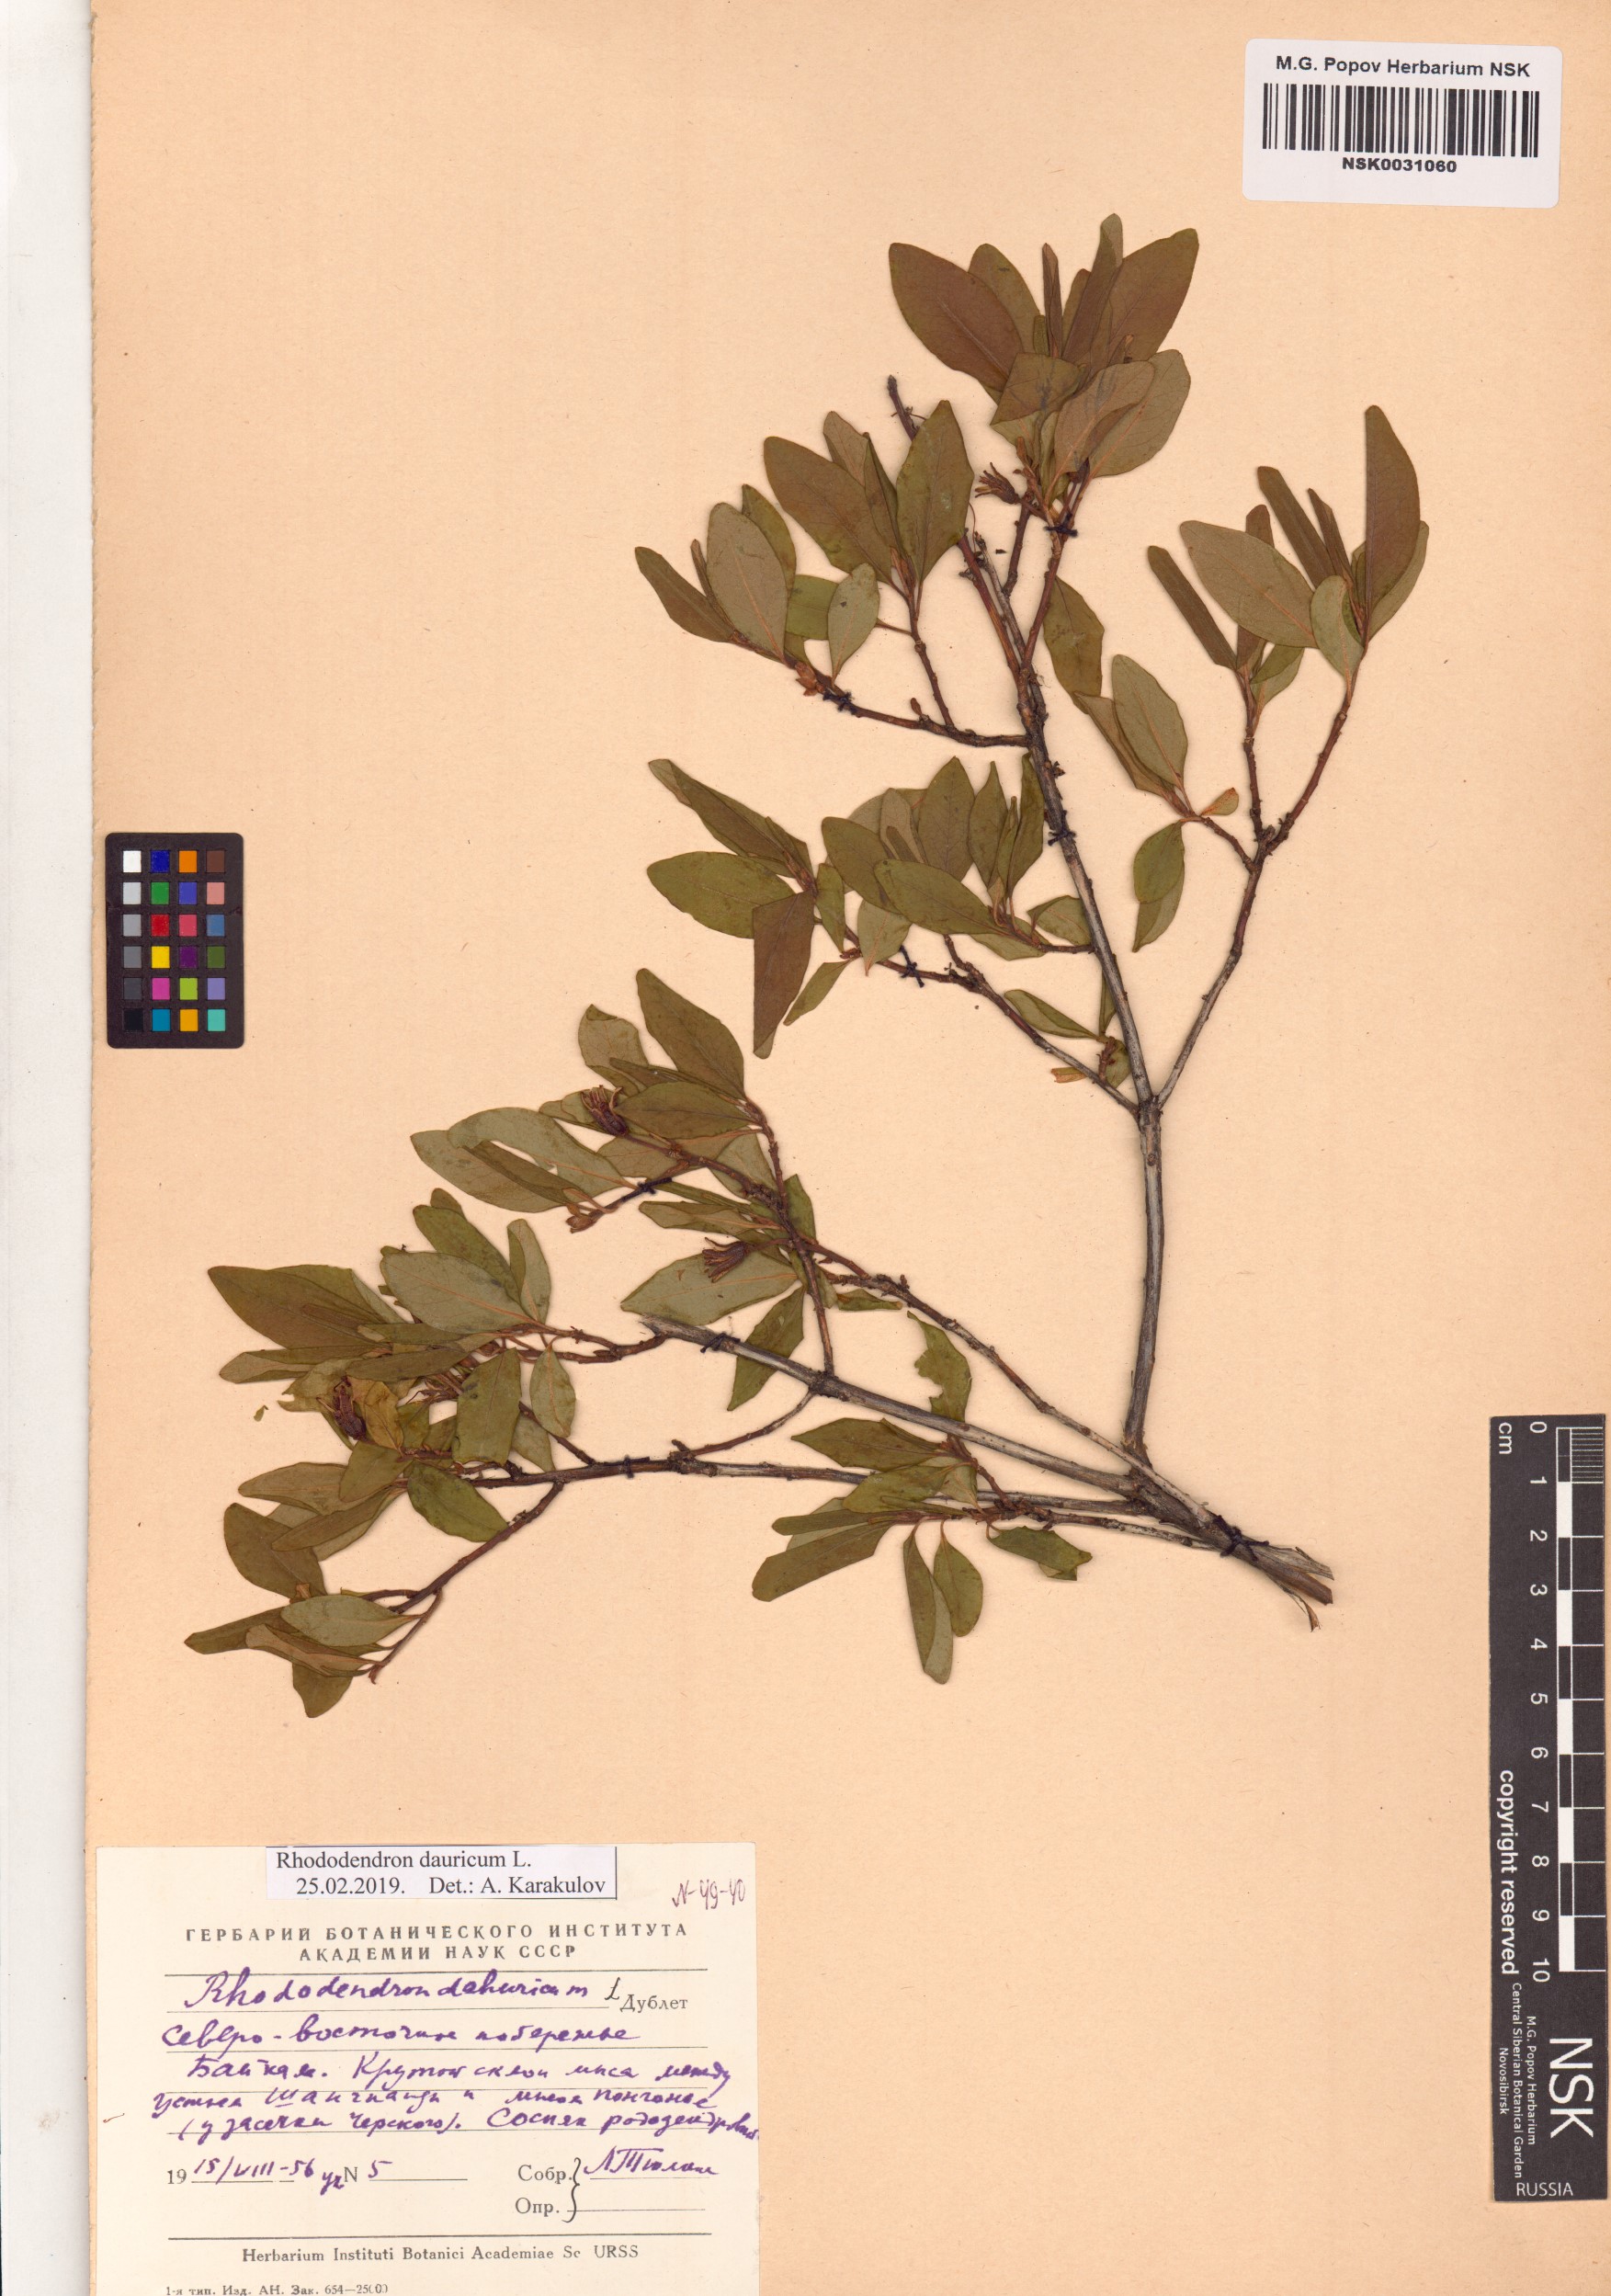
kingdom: Plantae
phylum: Tracheophyta
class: Magnoliopsida
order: Ericales
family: Ericaceae
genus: Rhododendron
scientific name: Rhododendron dauricum
